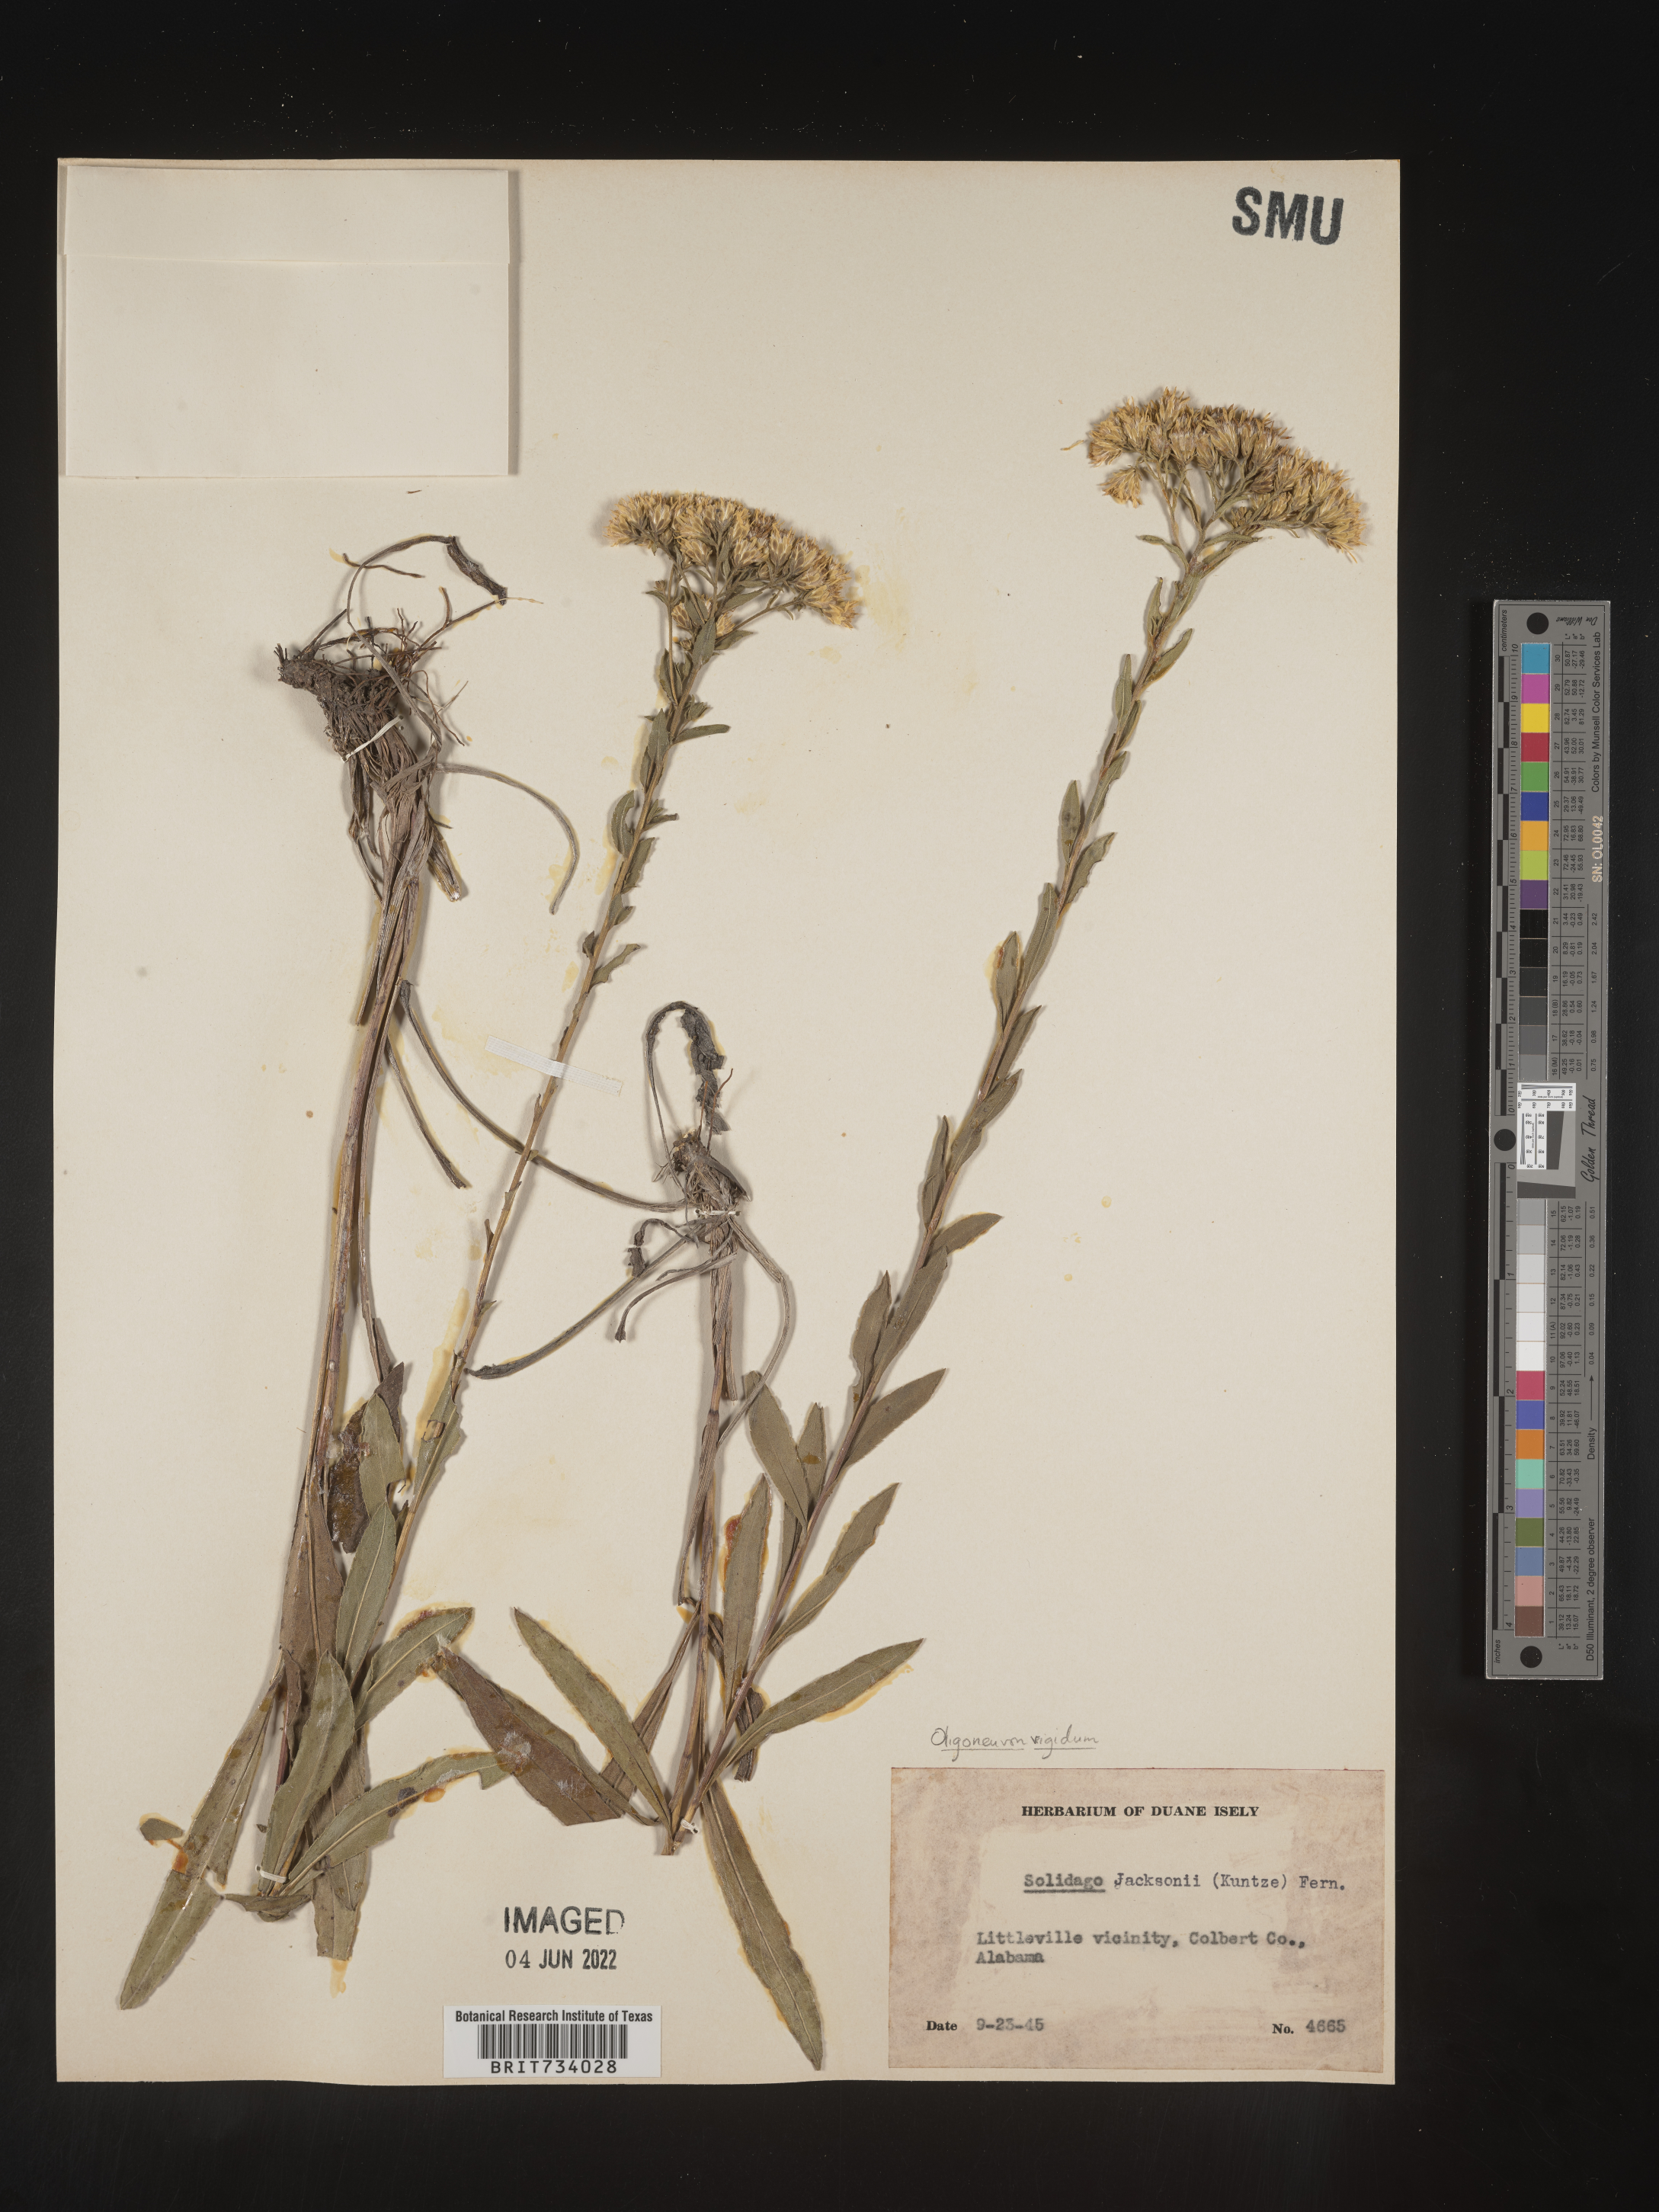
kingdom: Plantae
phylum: Tracheophyta
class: Magnoliopsida
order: Asterales
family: Asteraceae
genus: Solidago
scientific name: Solidago rigida
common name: Rigid goldenrod
